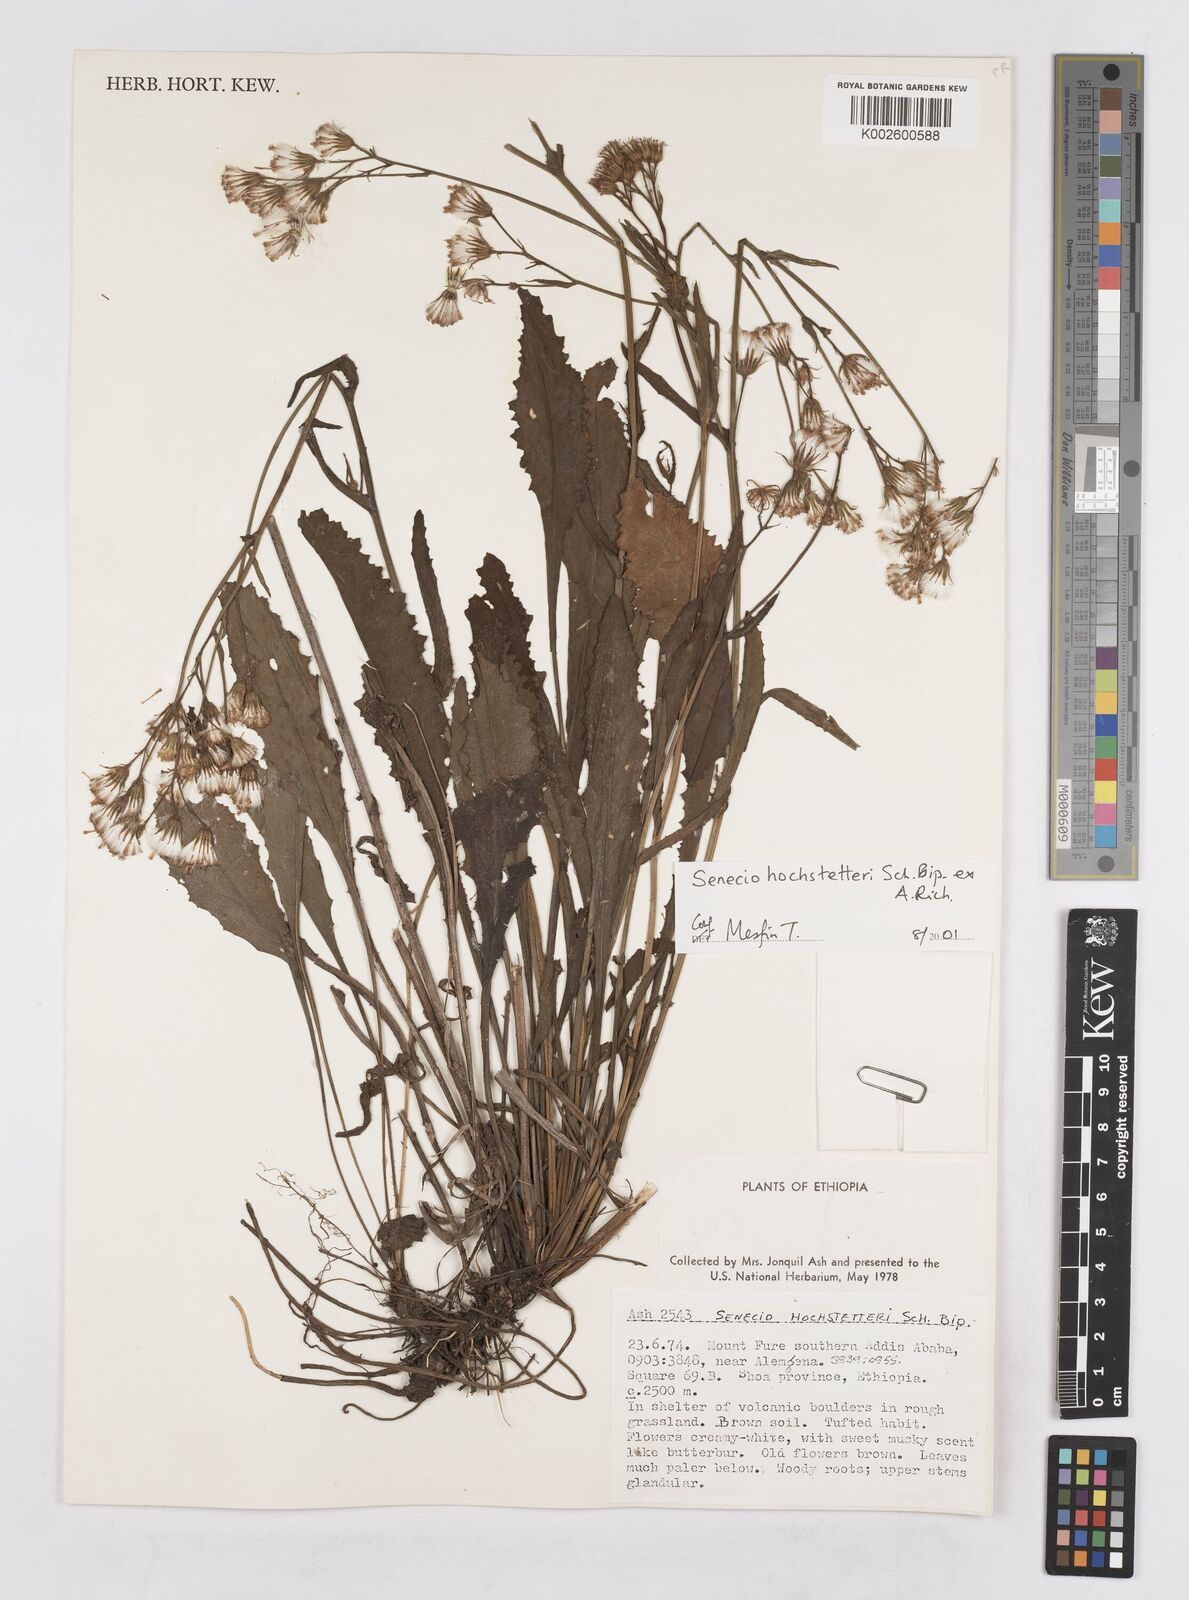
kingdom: Plantae
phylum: Tracheophyta
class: Magnoliopsida
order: Asterales
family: Asteraceae
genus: Senecio
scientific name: Senecio hochstetteri
